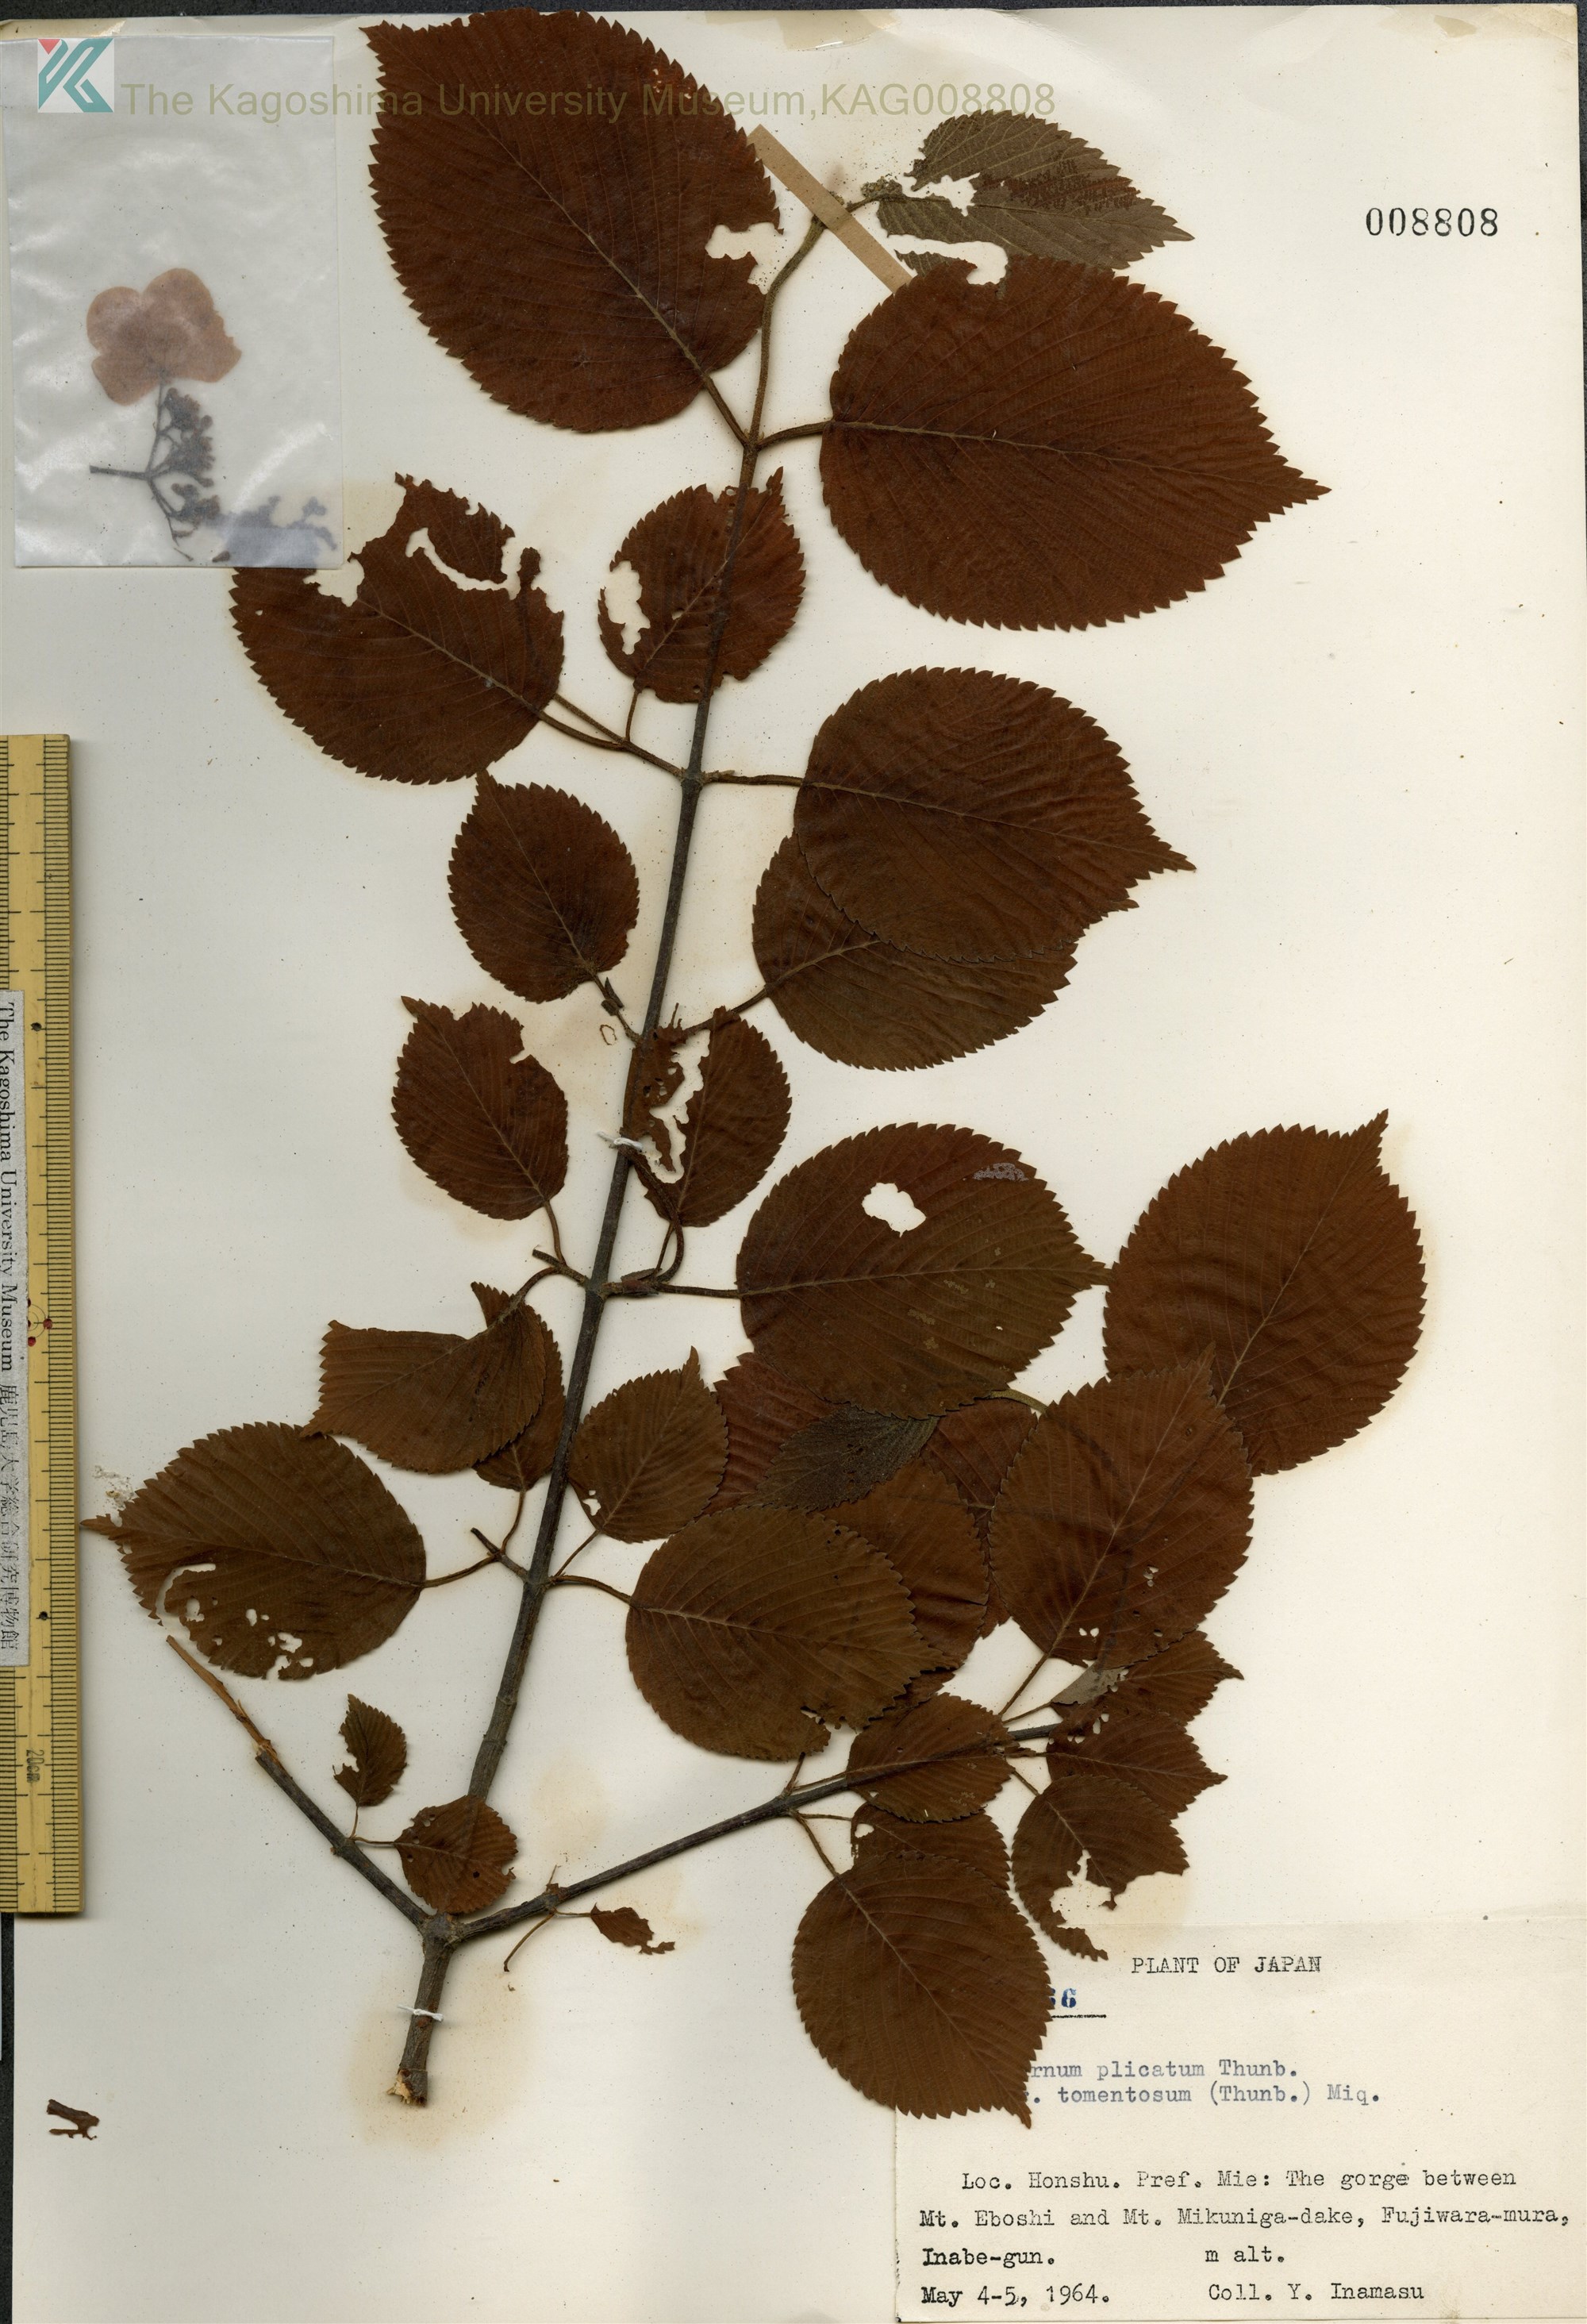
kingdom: Plantae
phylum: Tracheophyta
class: Magnoliopsida
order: Dipsacales
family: Viburnaceae
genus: Viburnum
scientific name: Viburnum plicatum
